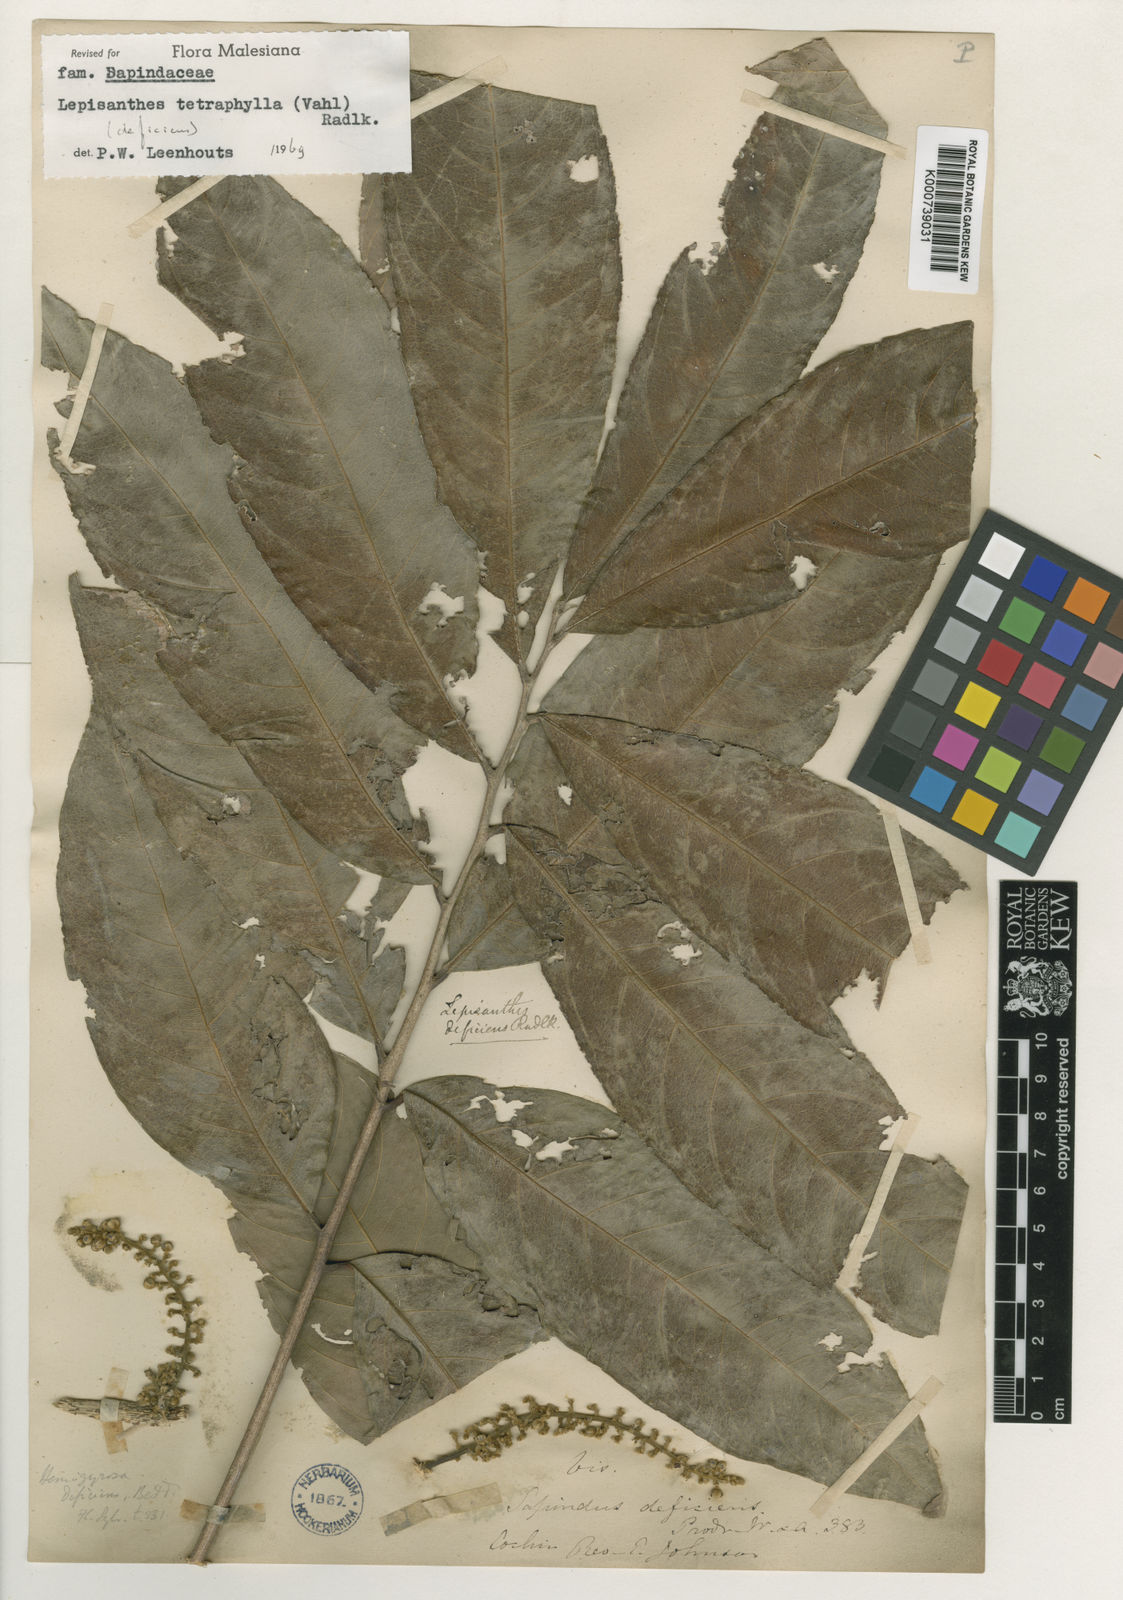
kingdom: Plantae
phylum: Tracheophyta
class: Magnoliopsida
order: Sapindales
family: Sapindaceae
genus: Lepisanthes
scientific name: Lepisanthes tetraphylla
